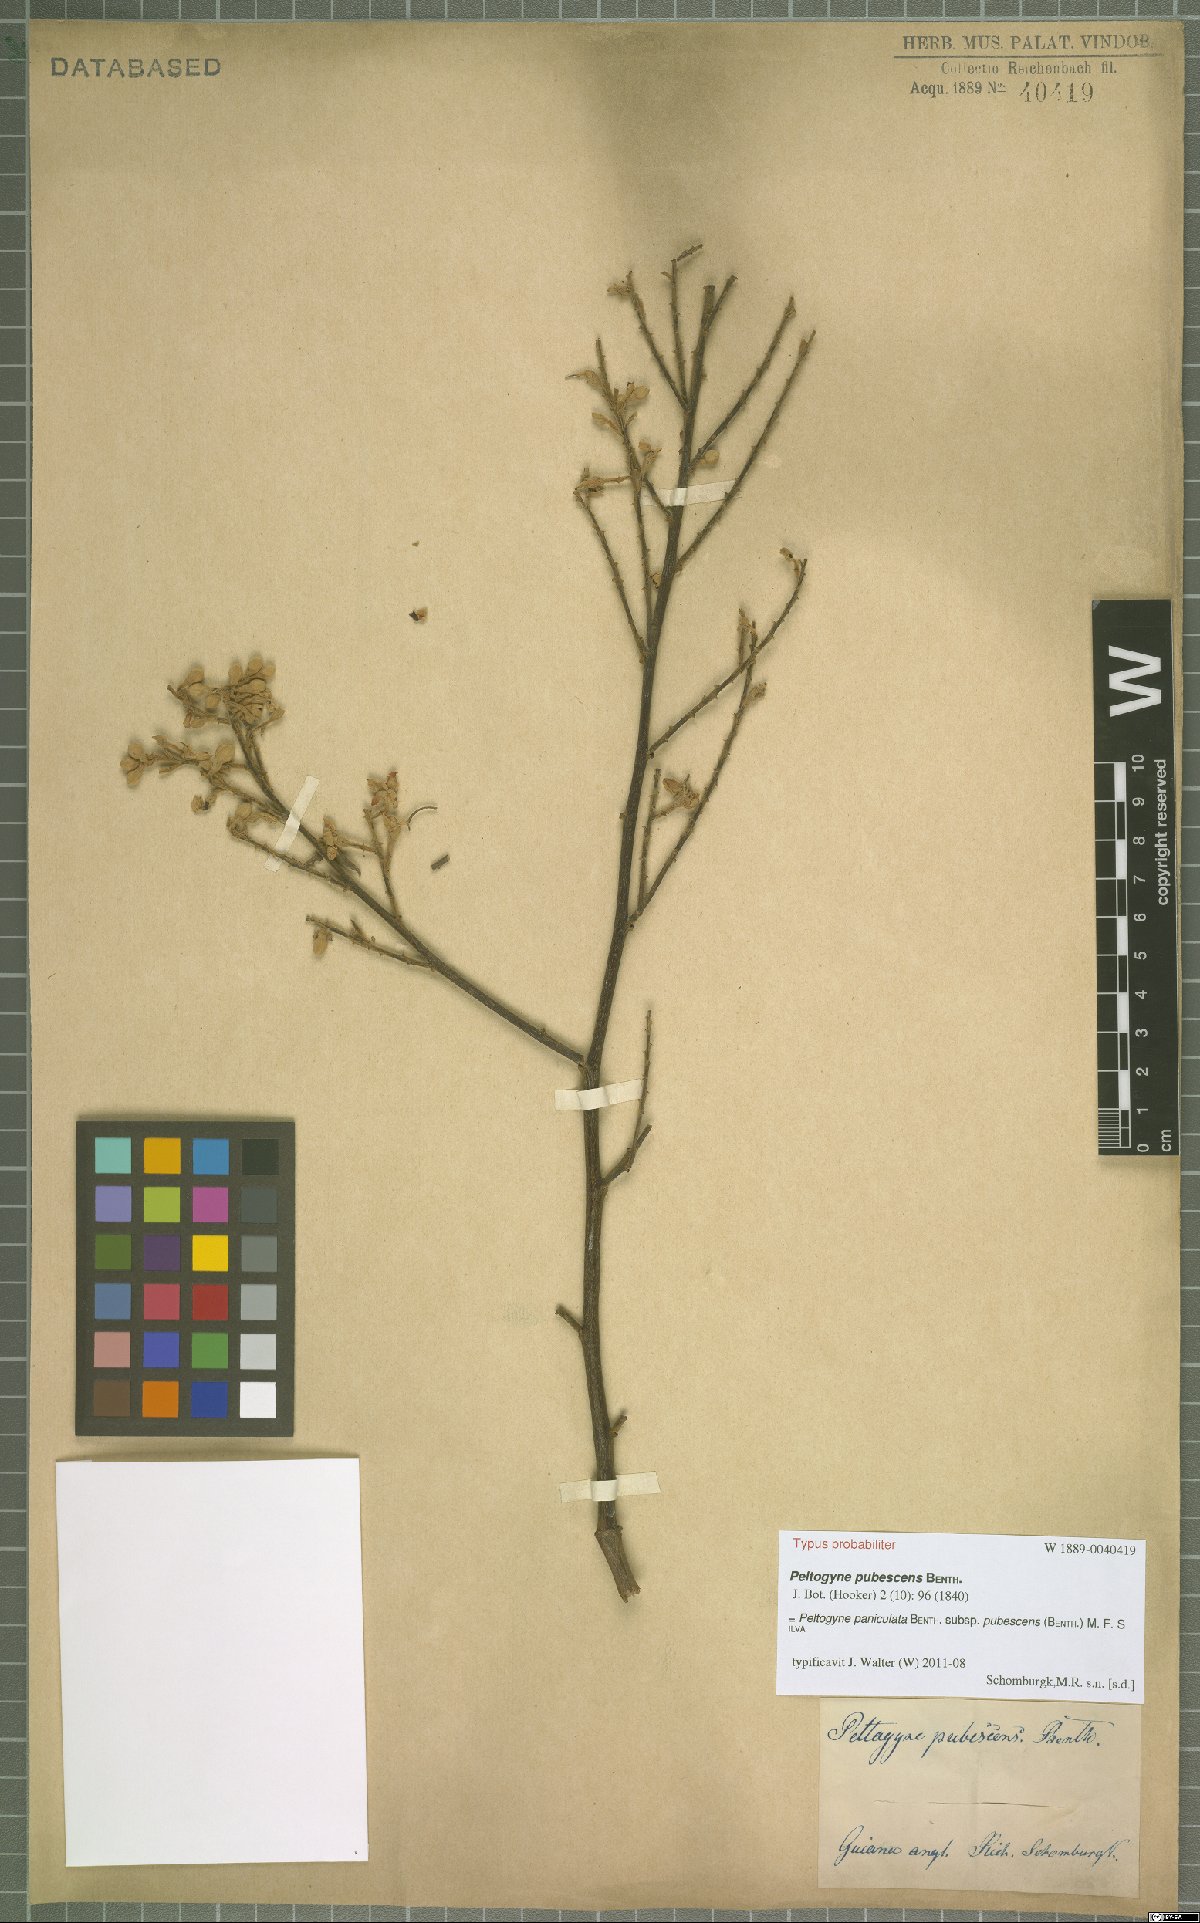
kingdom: Plantae
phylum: Tracheophyta
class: Magnoliopsida
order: Fabales
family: Fabaceae
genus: Peltogyne
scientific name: Peltogyne paniculata
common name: Purpleheart
